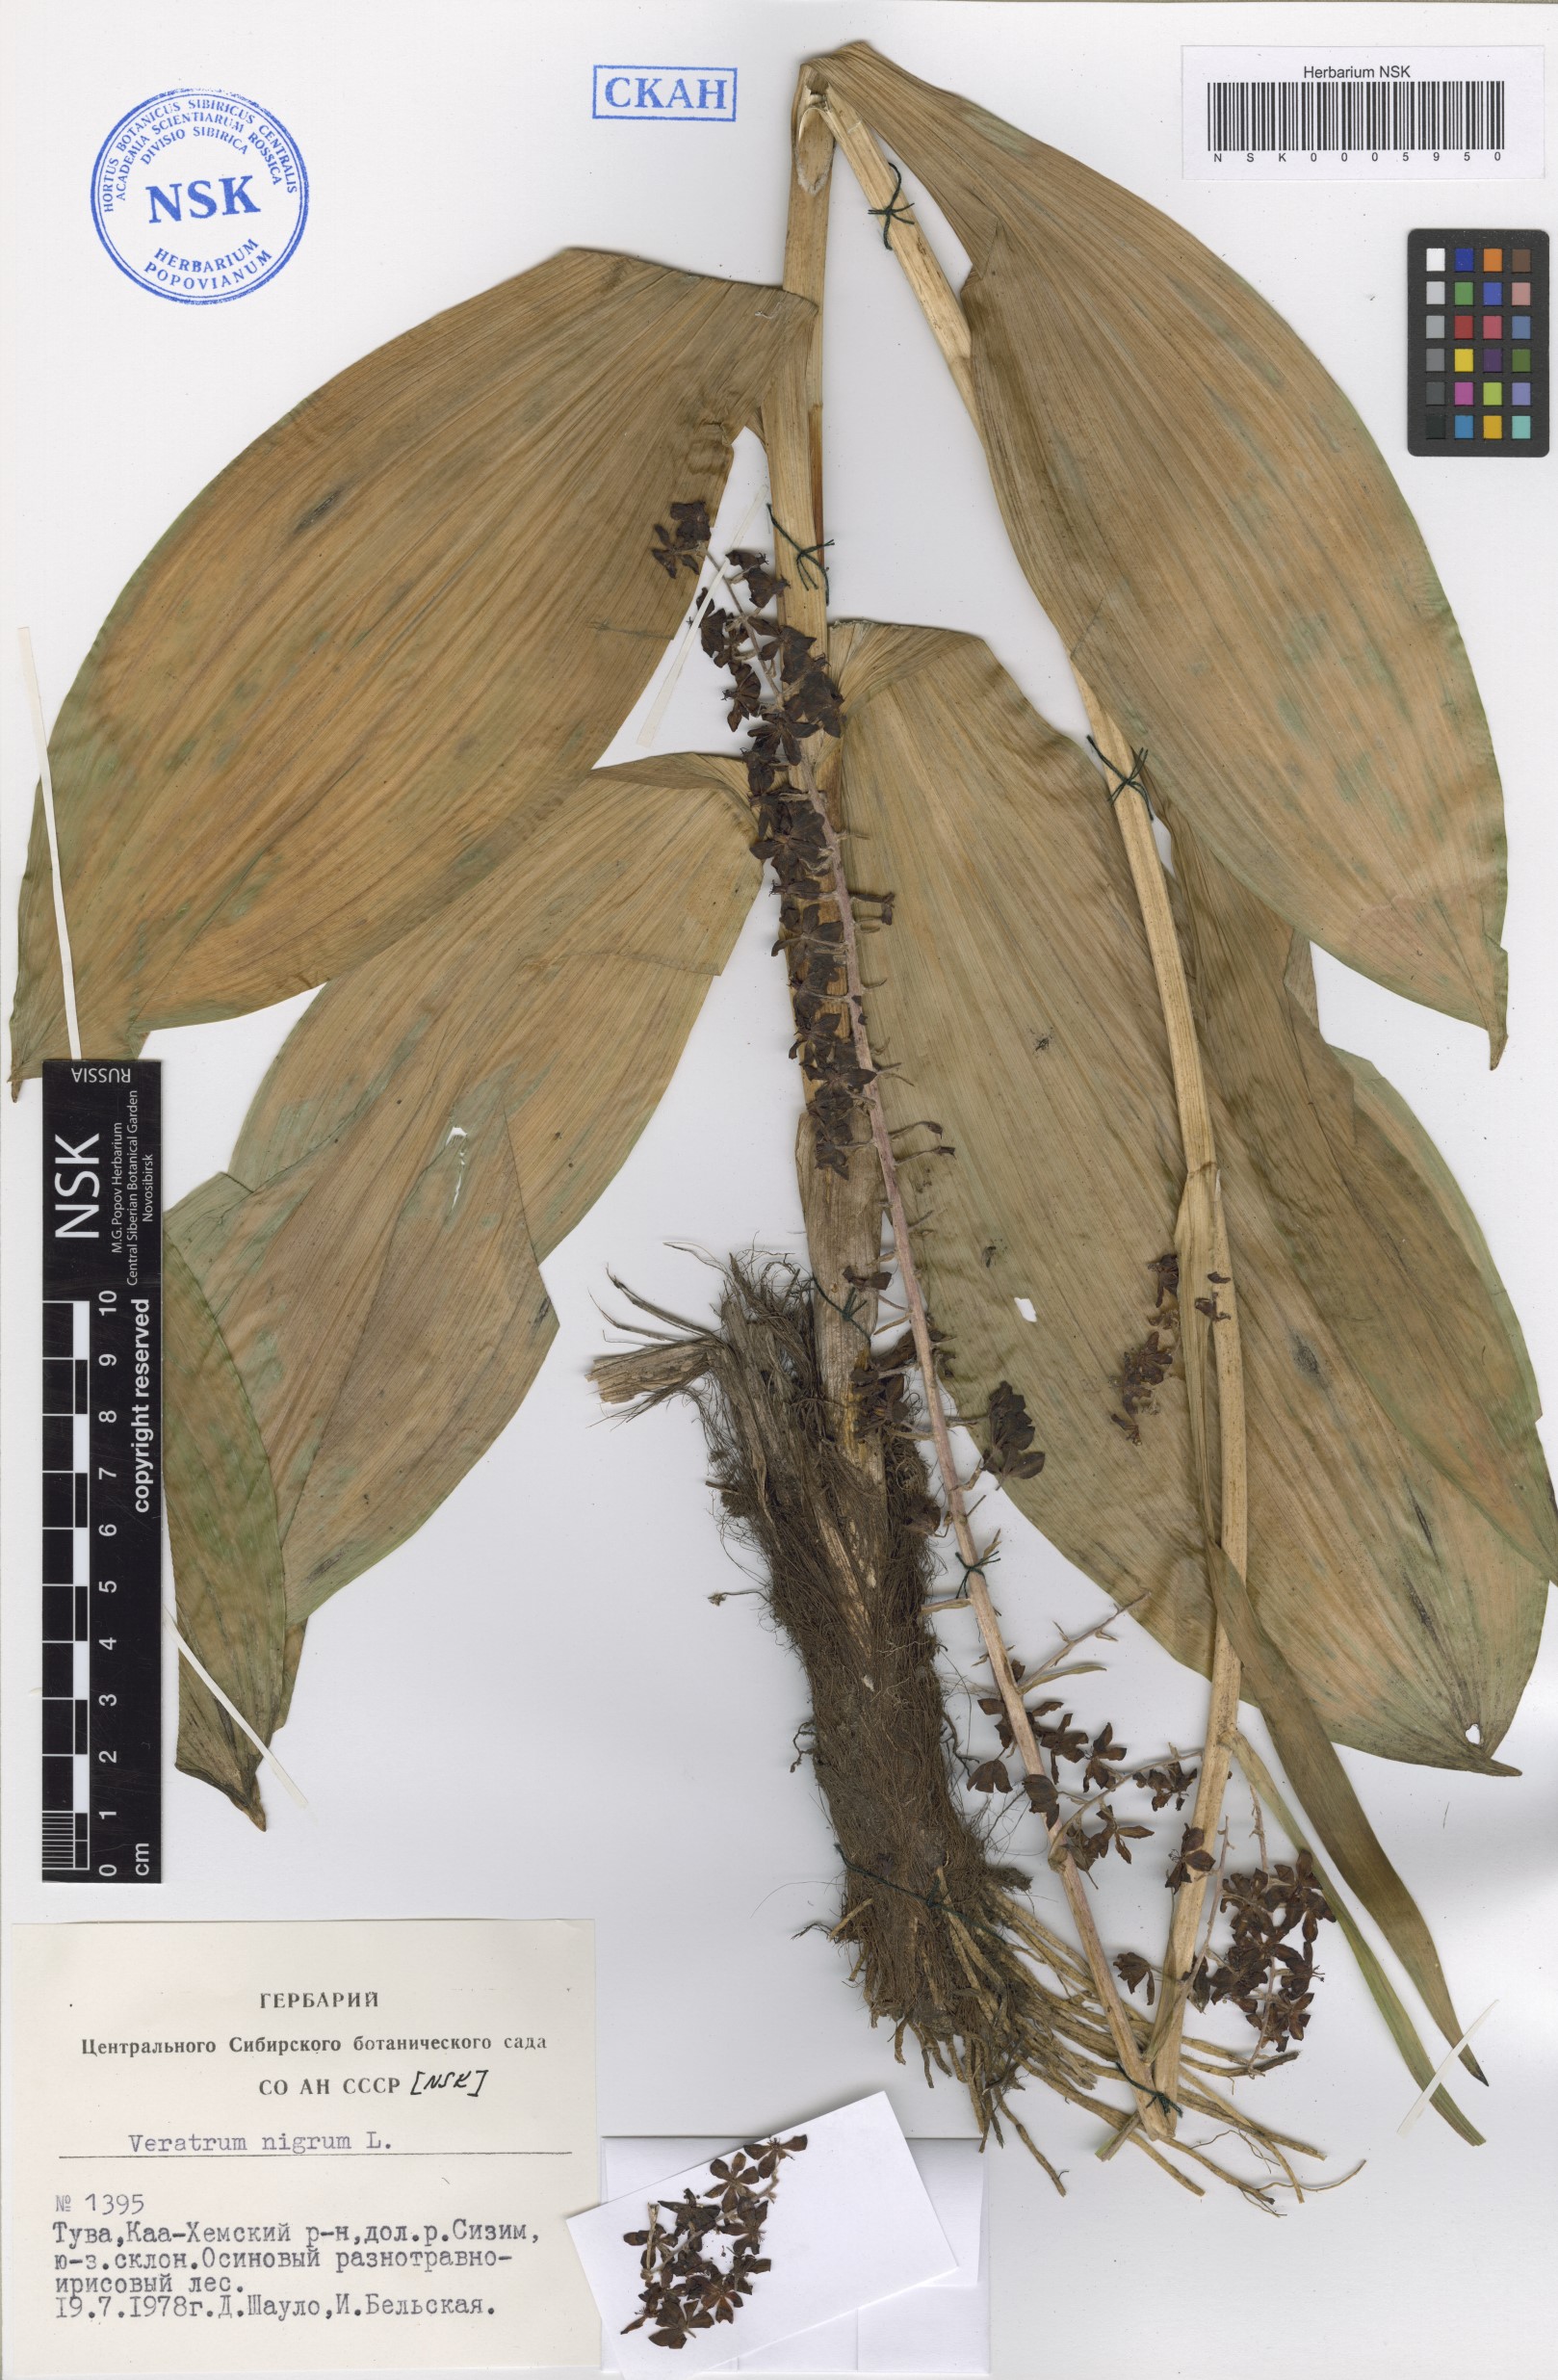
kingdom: Plantae
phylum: Tracheophyta
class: Liliopsida
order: Liliales
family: Melanthiaceae
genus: Veratrum
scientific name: Veratrum nigrum
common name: Black veratrum
